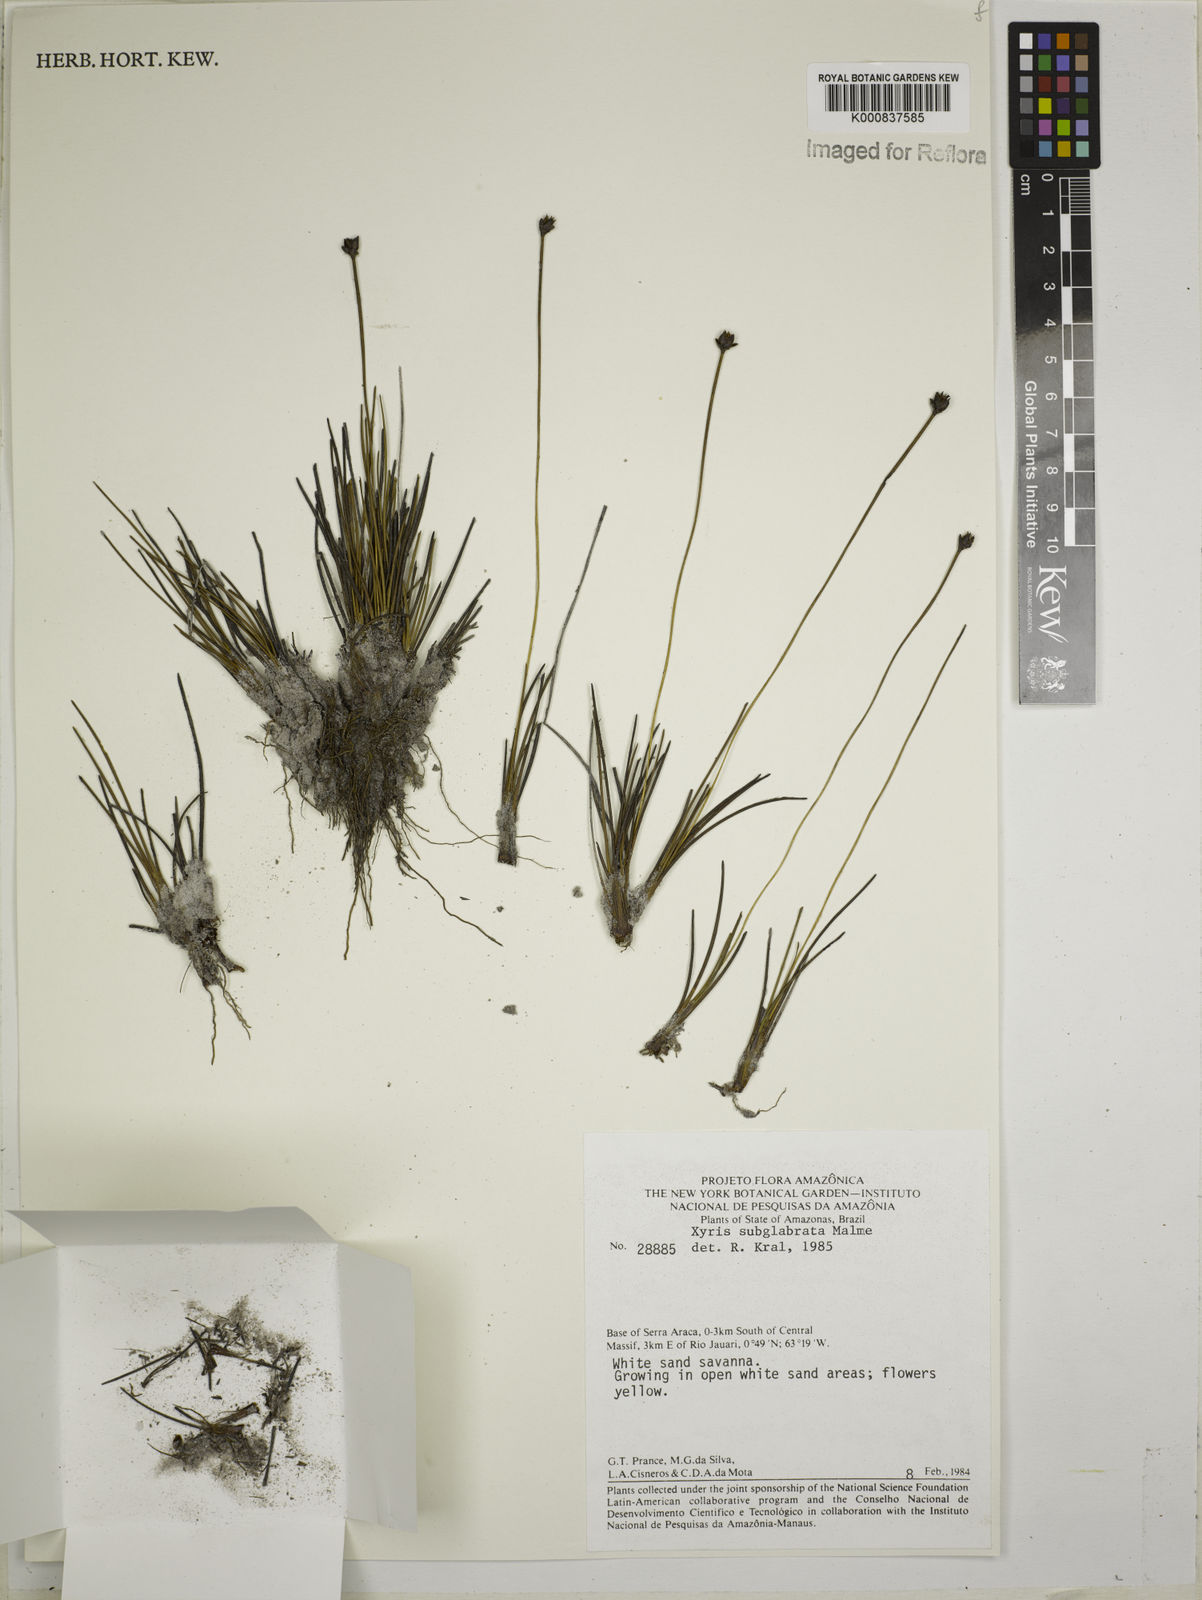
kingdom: Plantae
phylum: Tracheophyta
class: Liliopsida
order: Poales
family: Xyridaceae
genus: Xyris
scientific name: Xyris subglabrata
